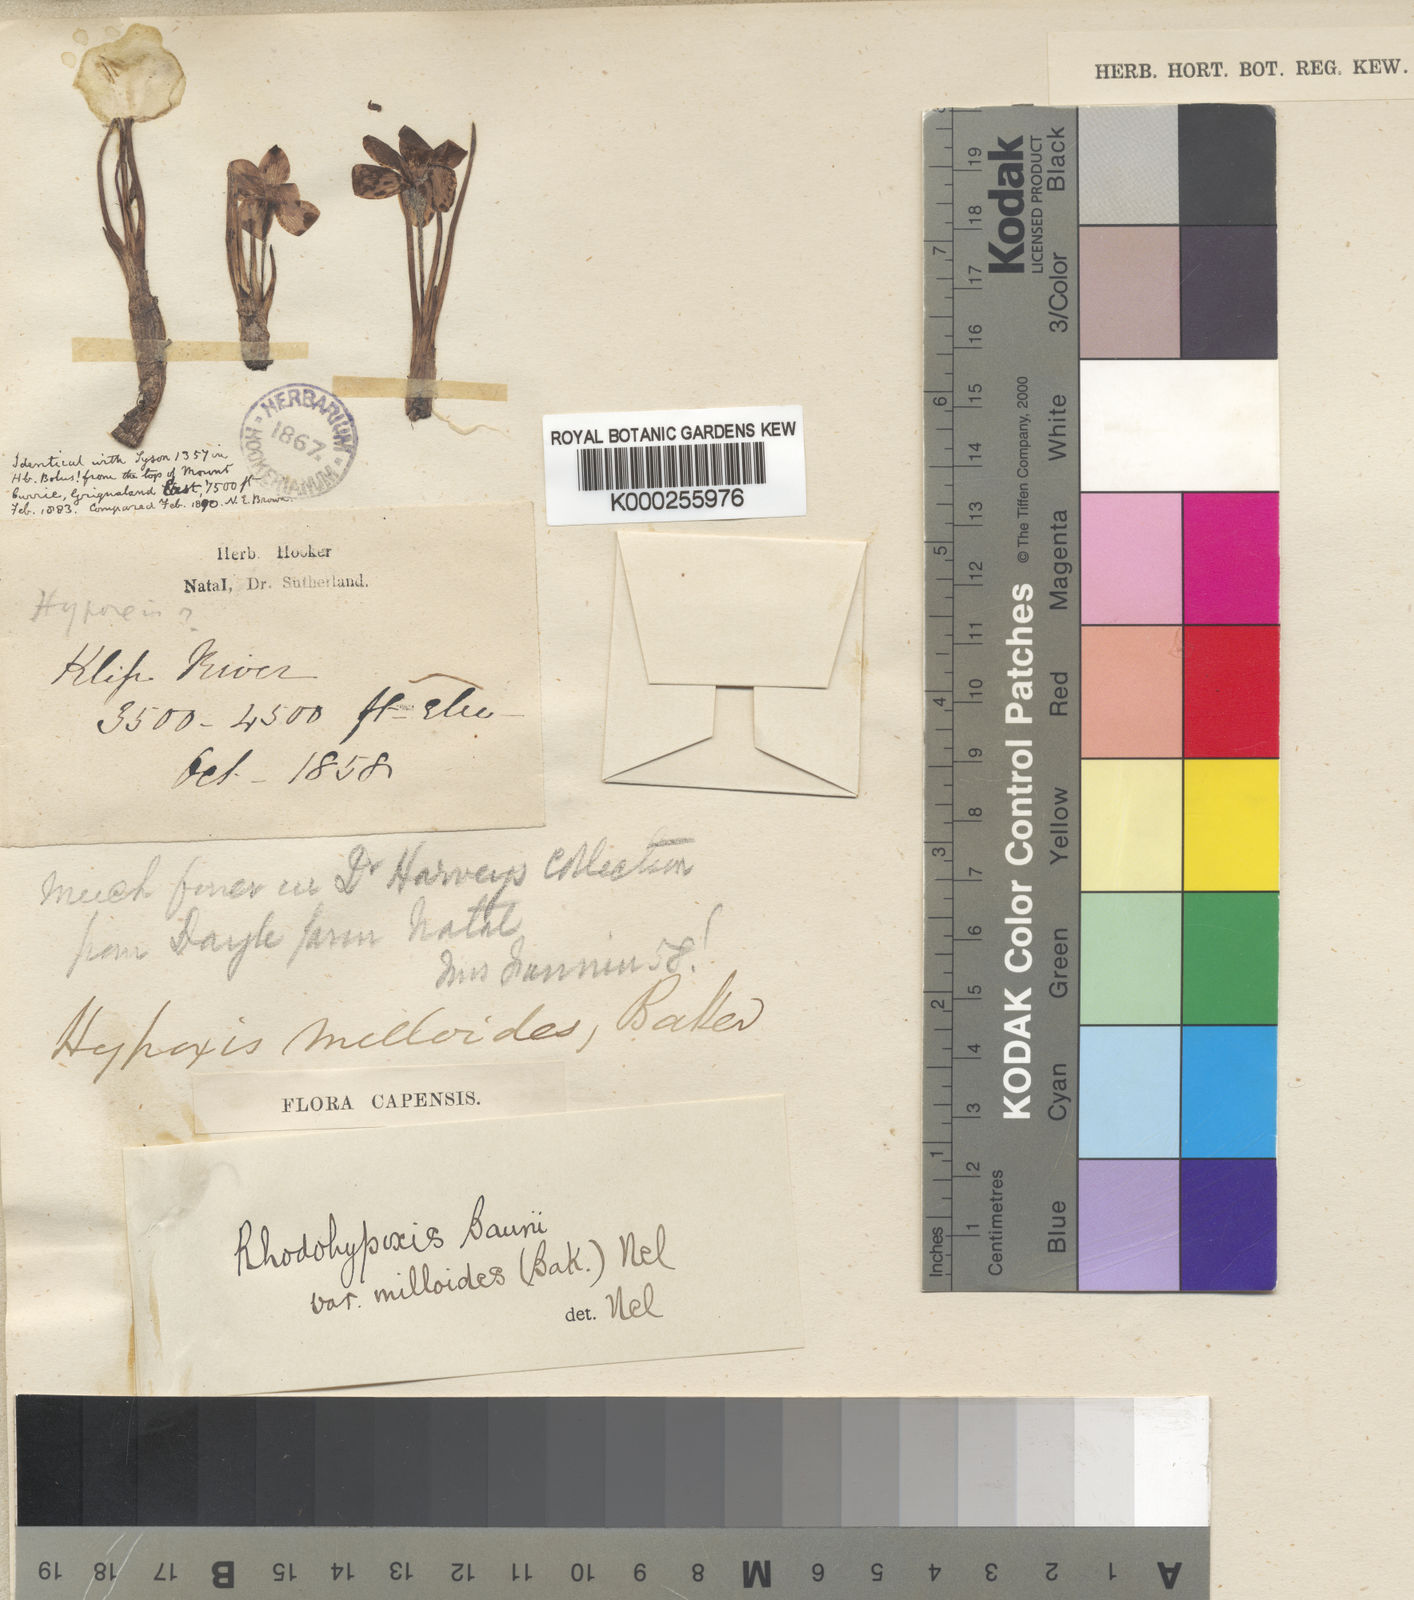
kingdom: Plantae
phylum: Tracheophyta
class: Liliopsida
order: Asparagales
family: Hypoxidaceae
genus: Hypoxis
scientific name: Hypoxis milloides
